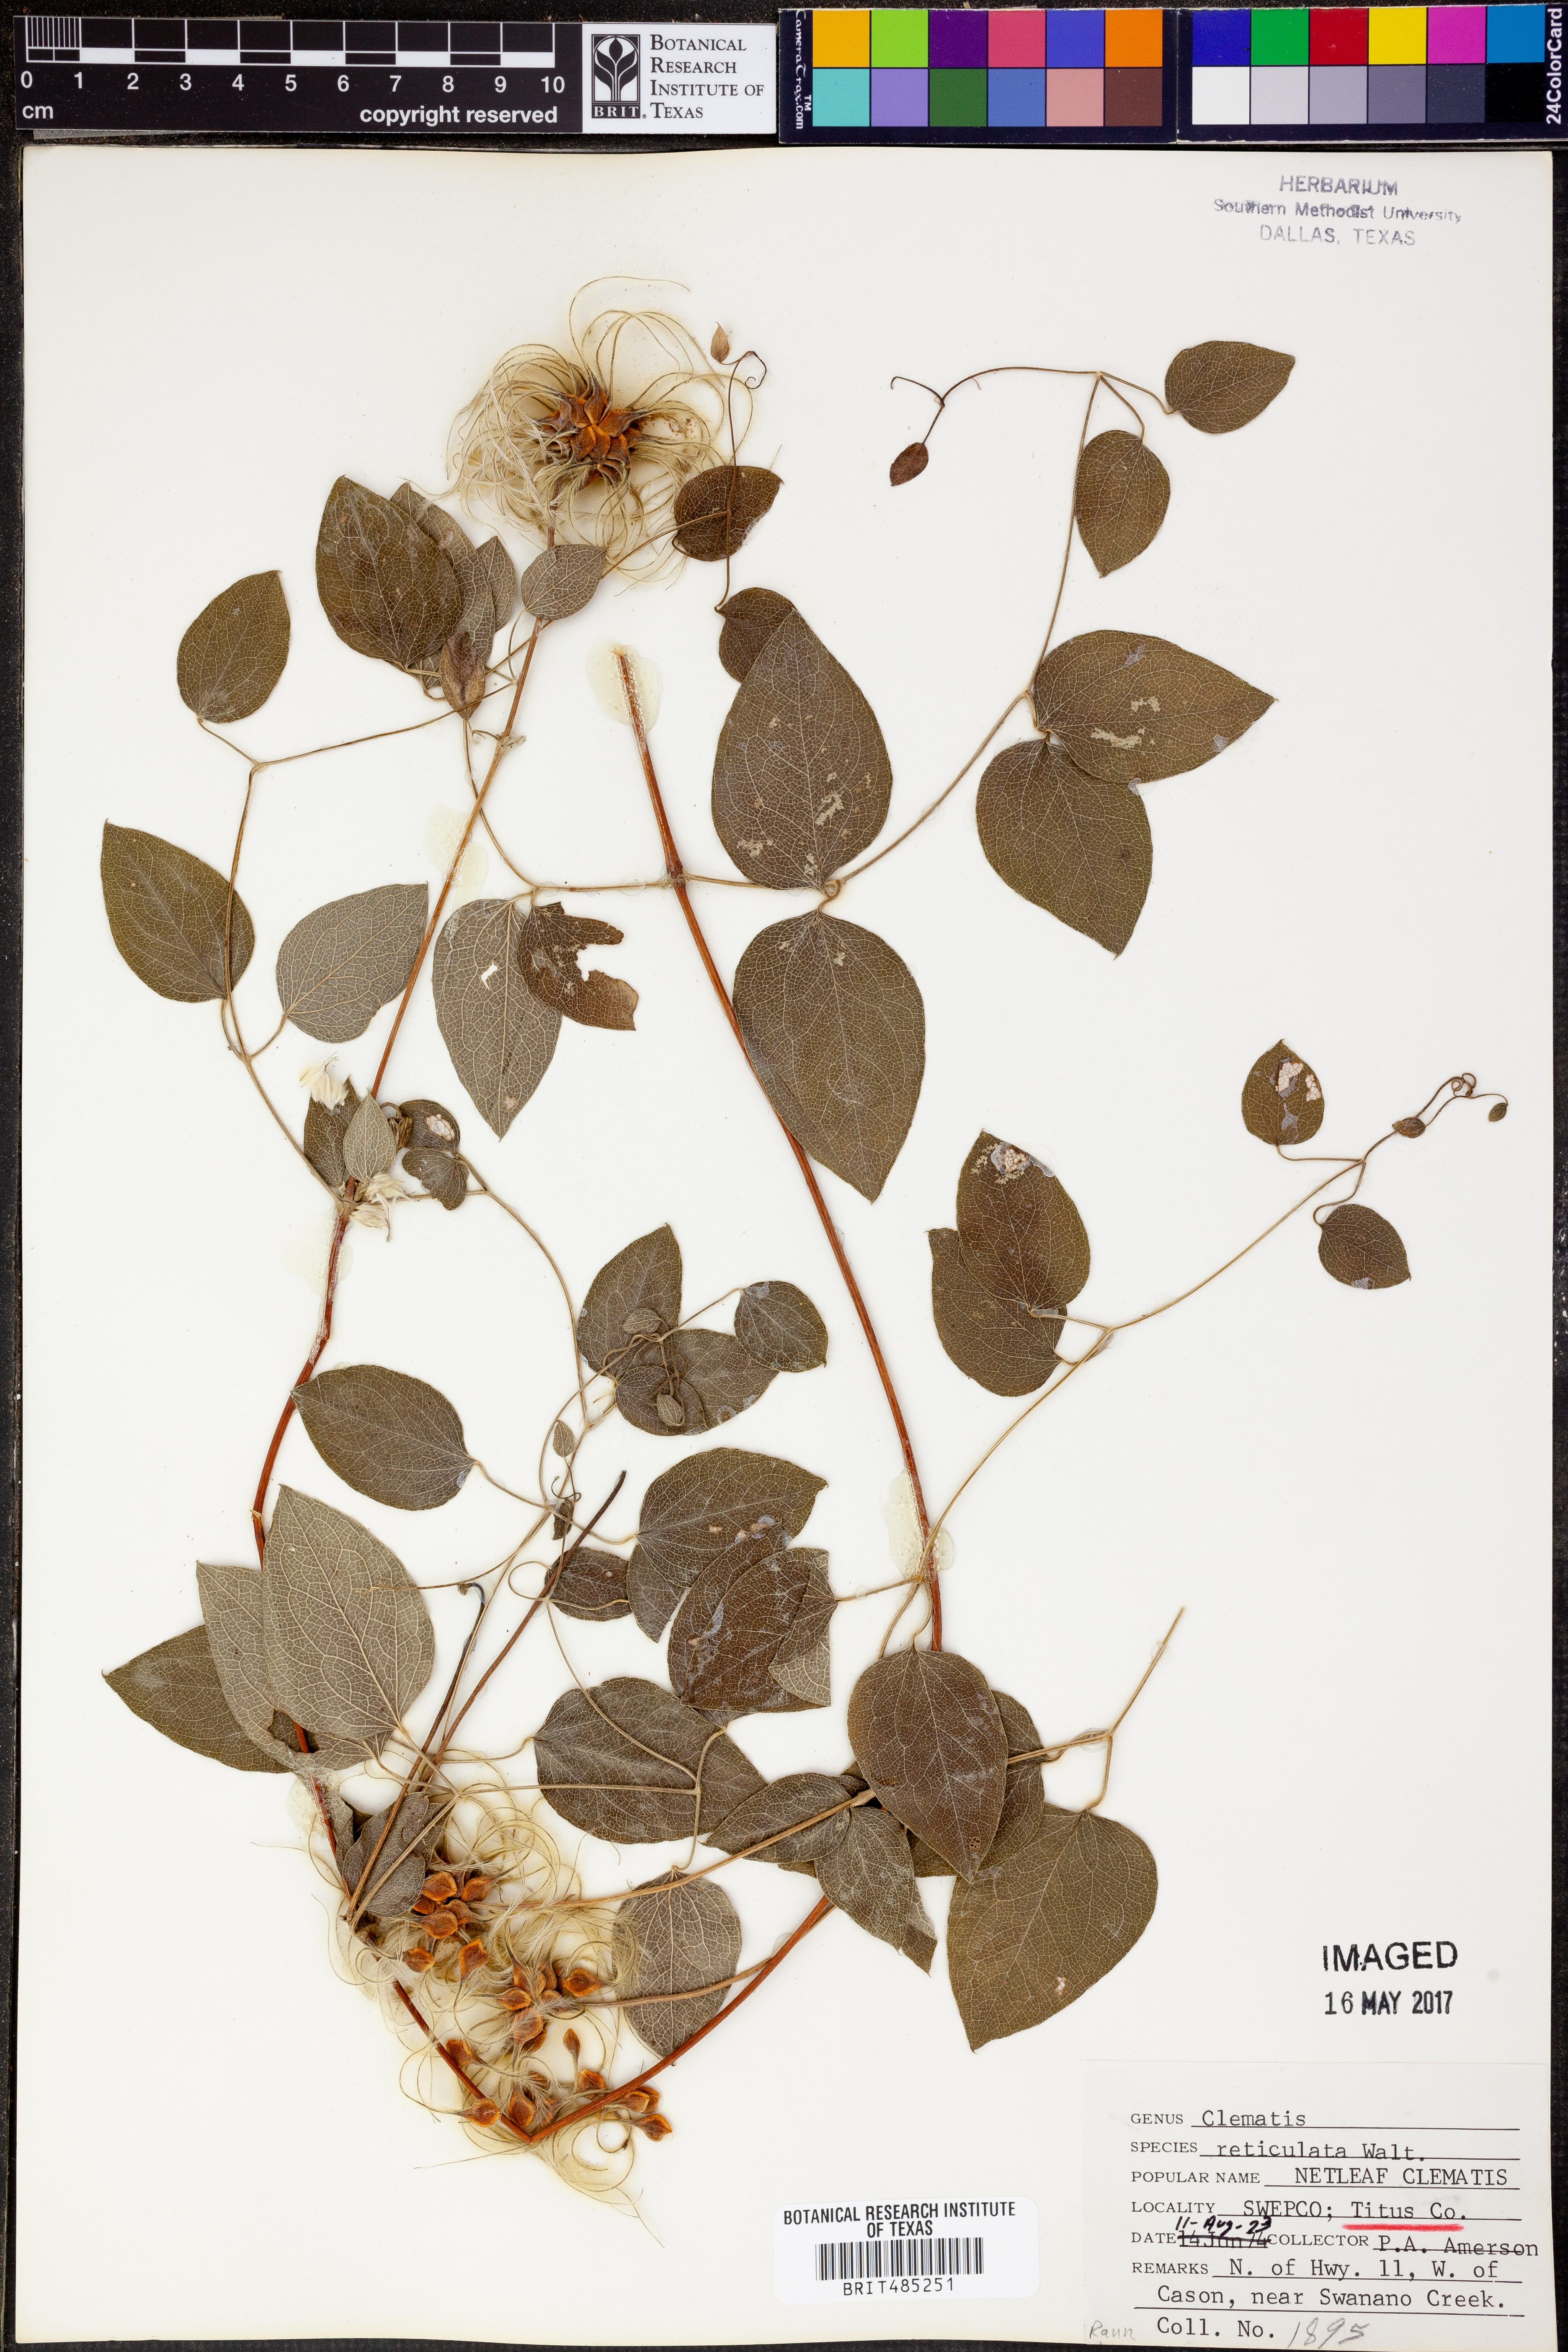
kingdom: Plantae
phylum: Tracheophyta
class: Magnoliopsida
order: Ranunculales
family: Ranunculaceae
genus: Clematis
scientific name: Clematis reticulata
